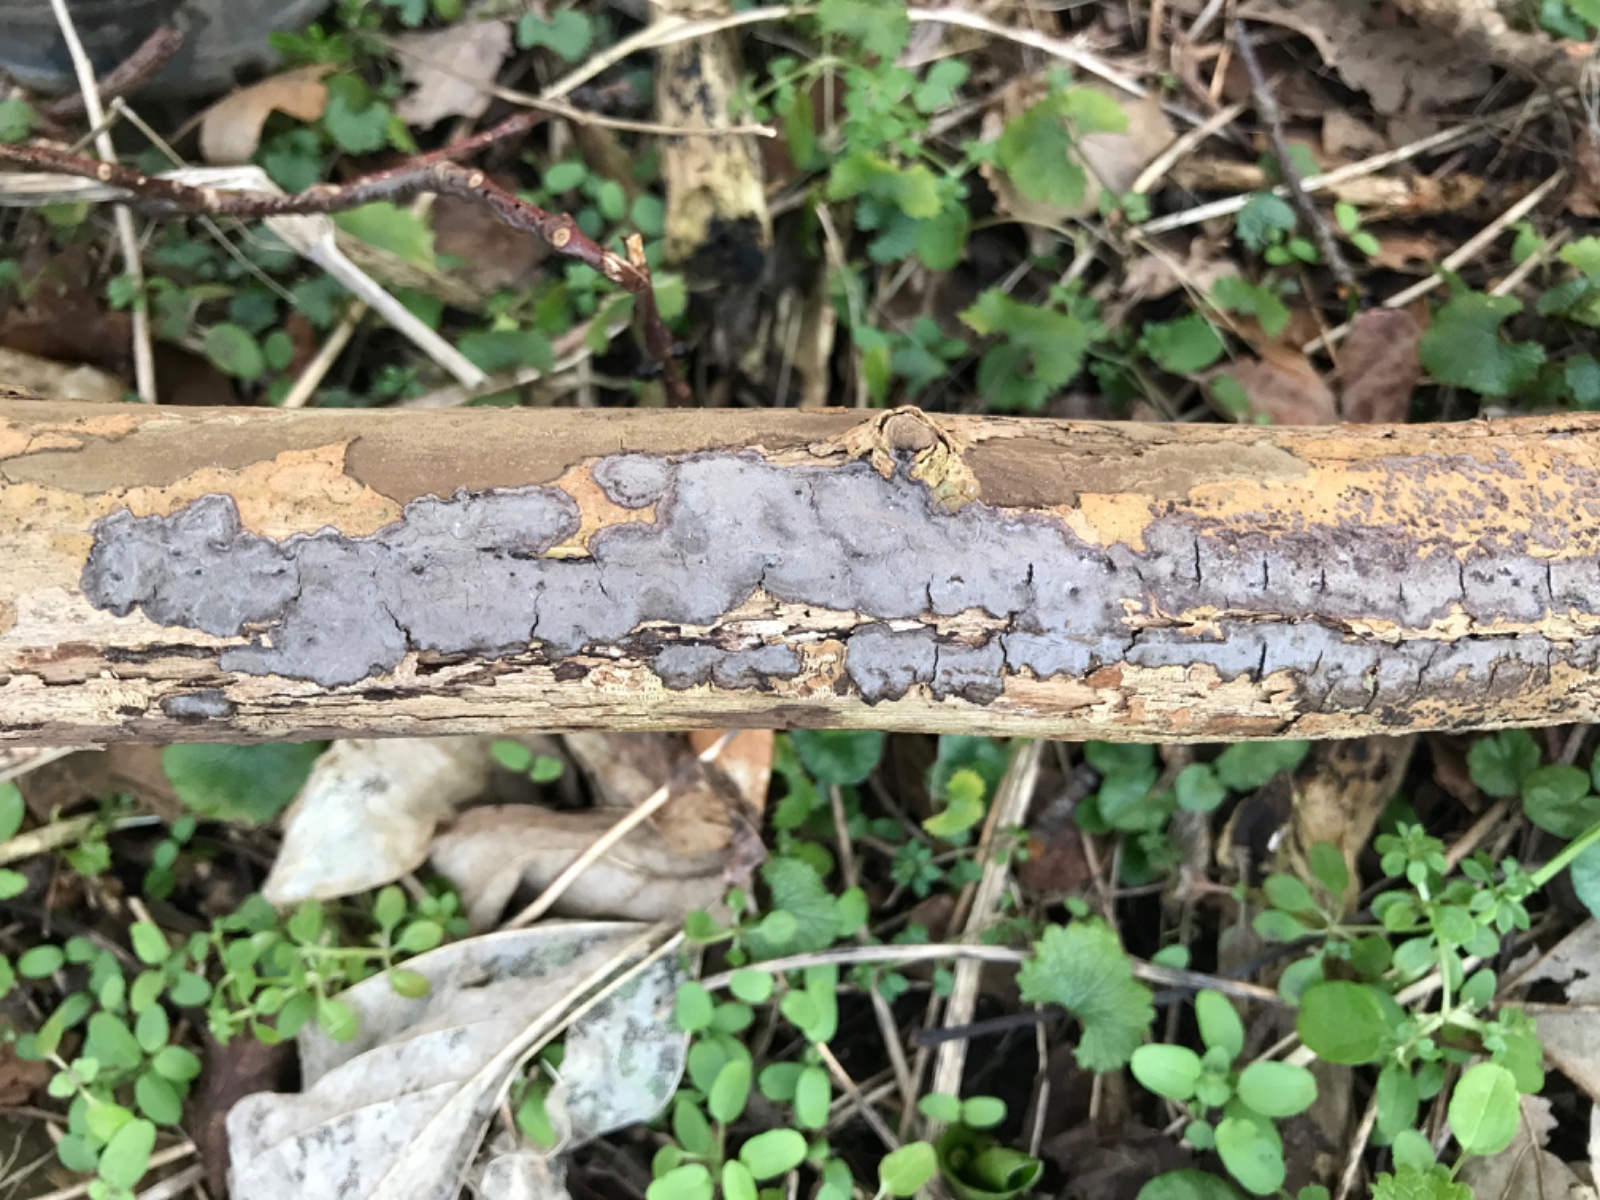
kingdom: Fungi
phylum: Basidiomycota
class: Agaricomycetes
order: Russulales
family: Peniophoraceae
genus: Peniophora
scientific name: Peniophora limitata
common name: mørkrandet voksskind
